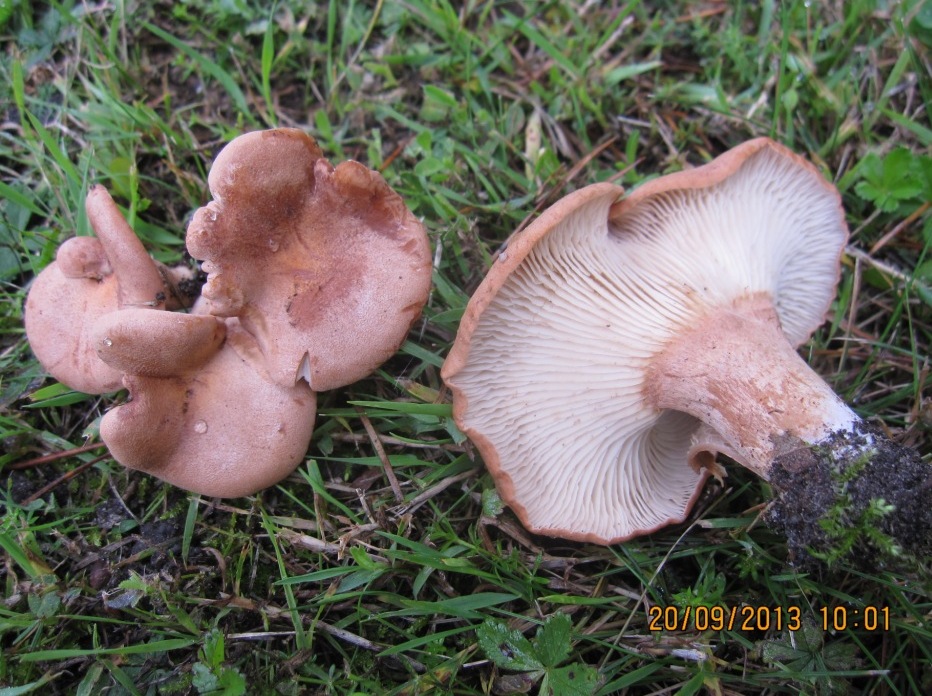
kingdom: Fungi
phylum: Basidiomycota
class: Agaricomycetes
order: Agaricales
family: Entolomataceae
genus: Clitopilus
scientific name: Clitopilus geminus
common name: kødfarvet troldhat
